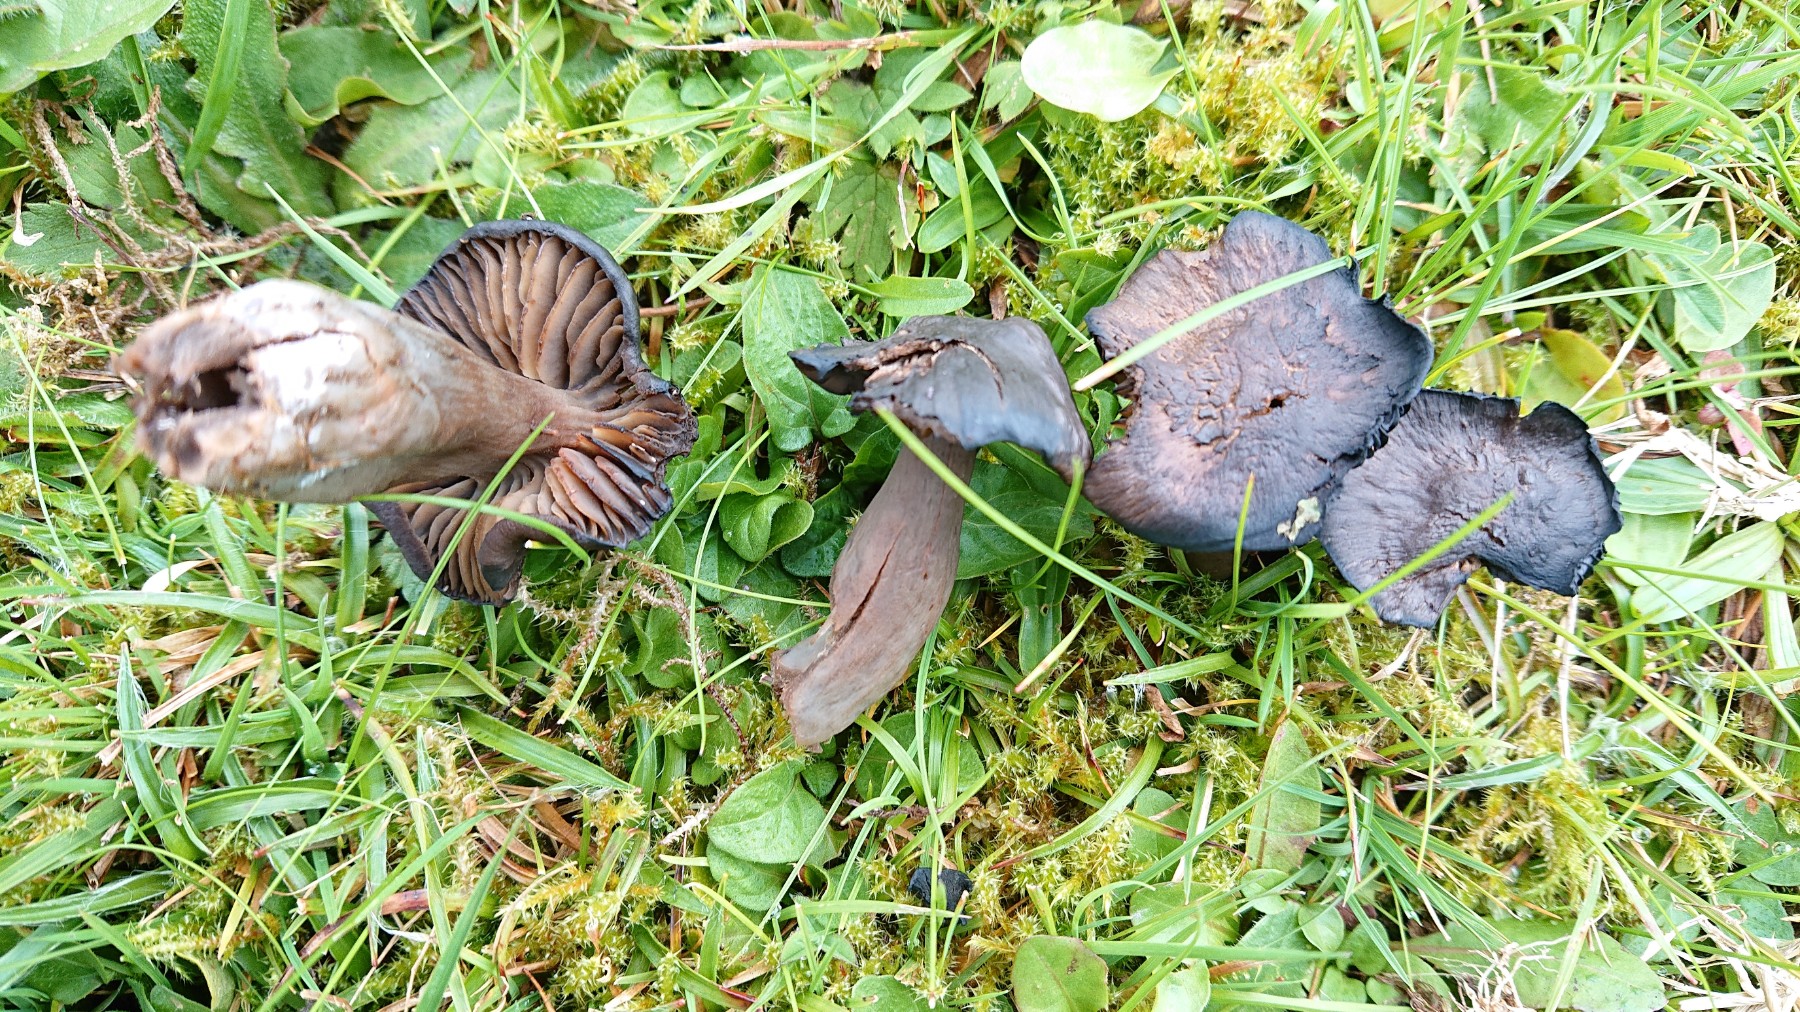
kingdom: Fungi
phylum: Basidiomycota
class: Agaricomycetes
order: Agaricales
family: Hygrophoraceae
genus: Neohygrocybe
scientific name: Neohygrocybe ovina
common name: rødmende vokshat
